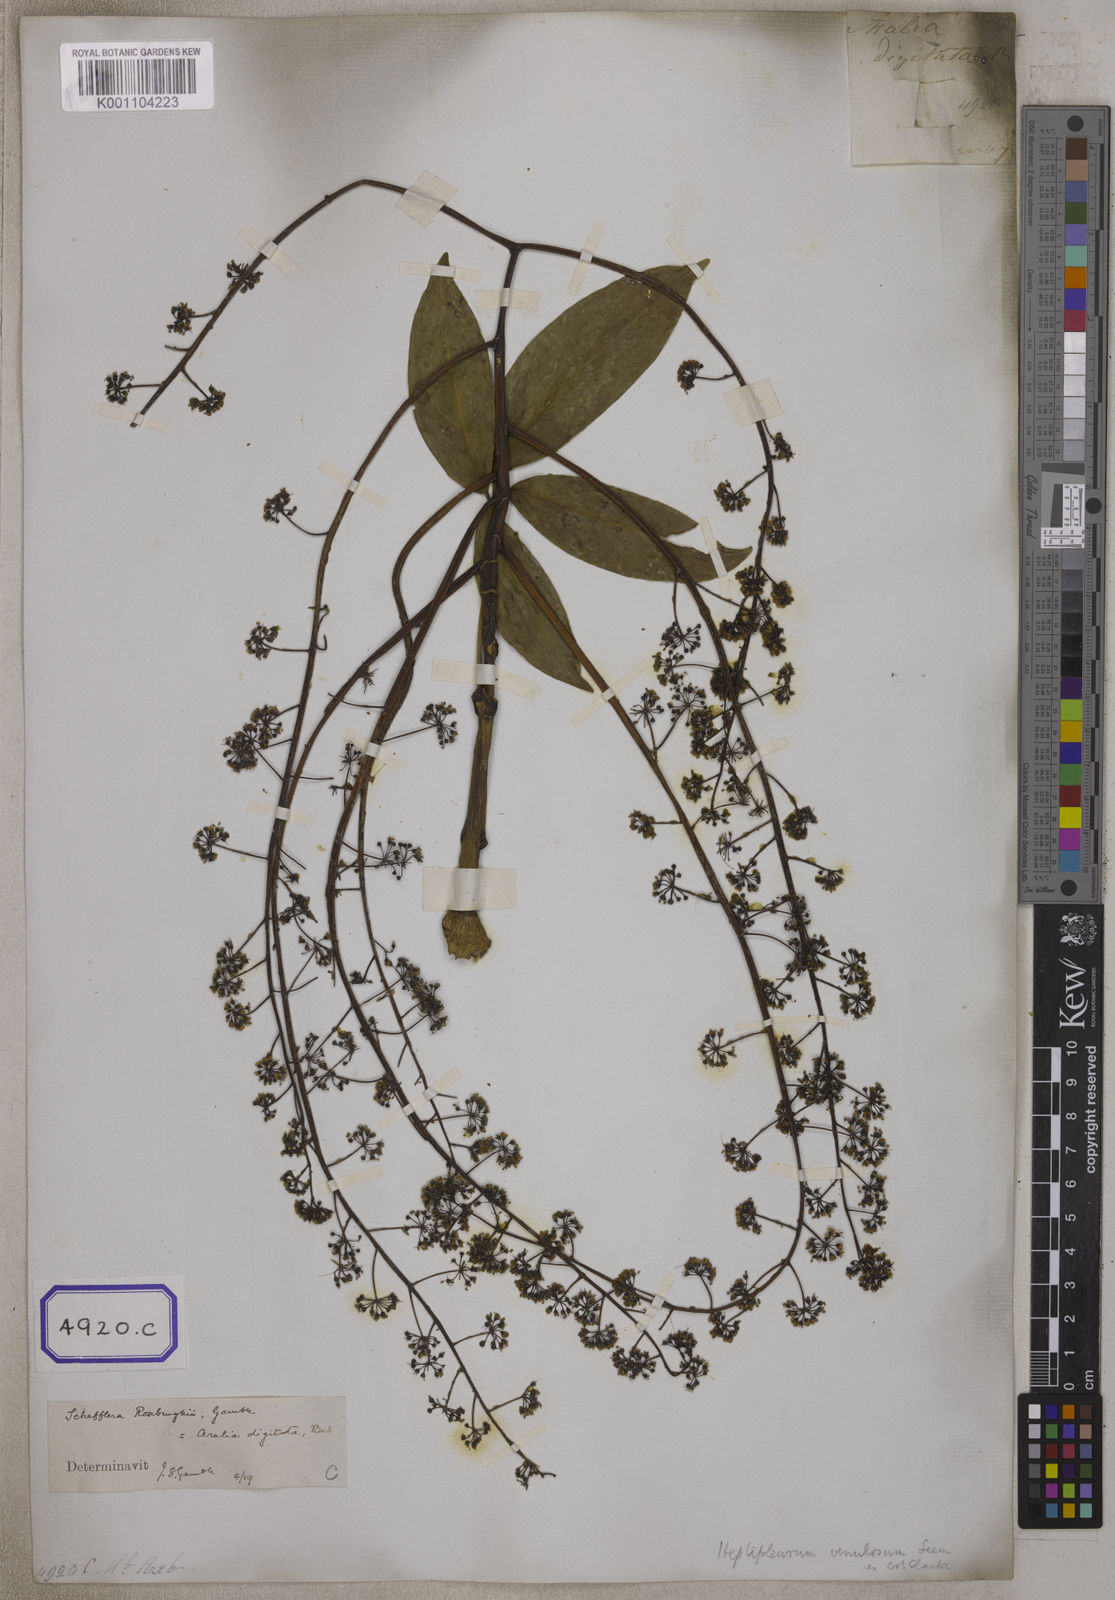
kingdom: Plantae
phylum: Tracheophyta
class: Magnoliopsida
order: Apiales
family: Araliaceae
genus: Hedera
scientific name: Hedera
